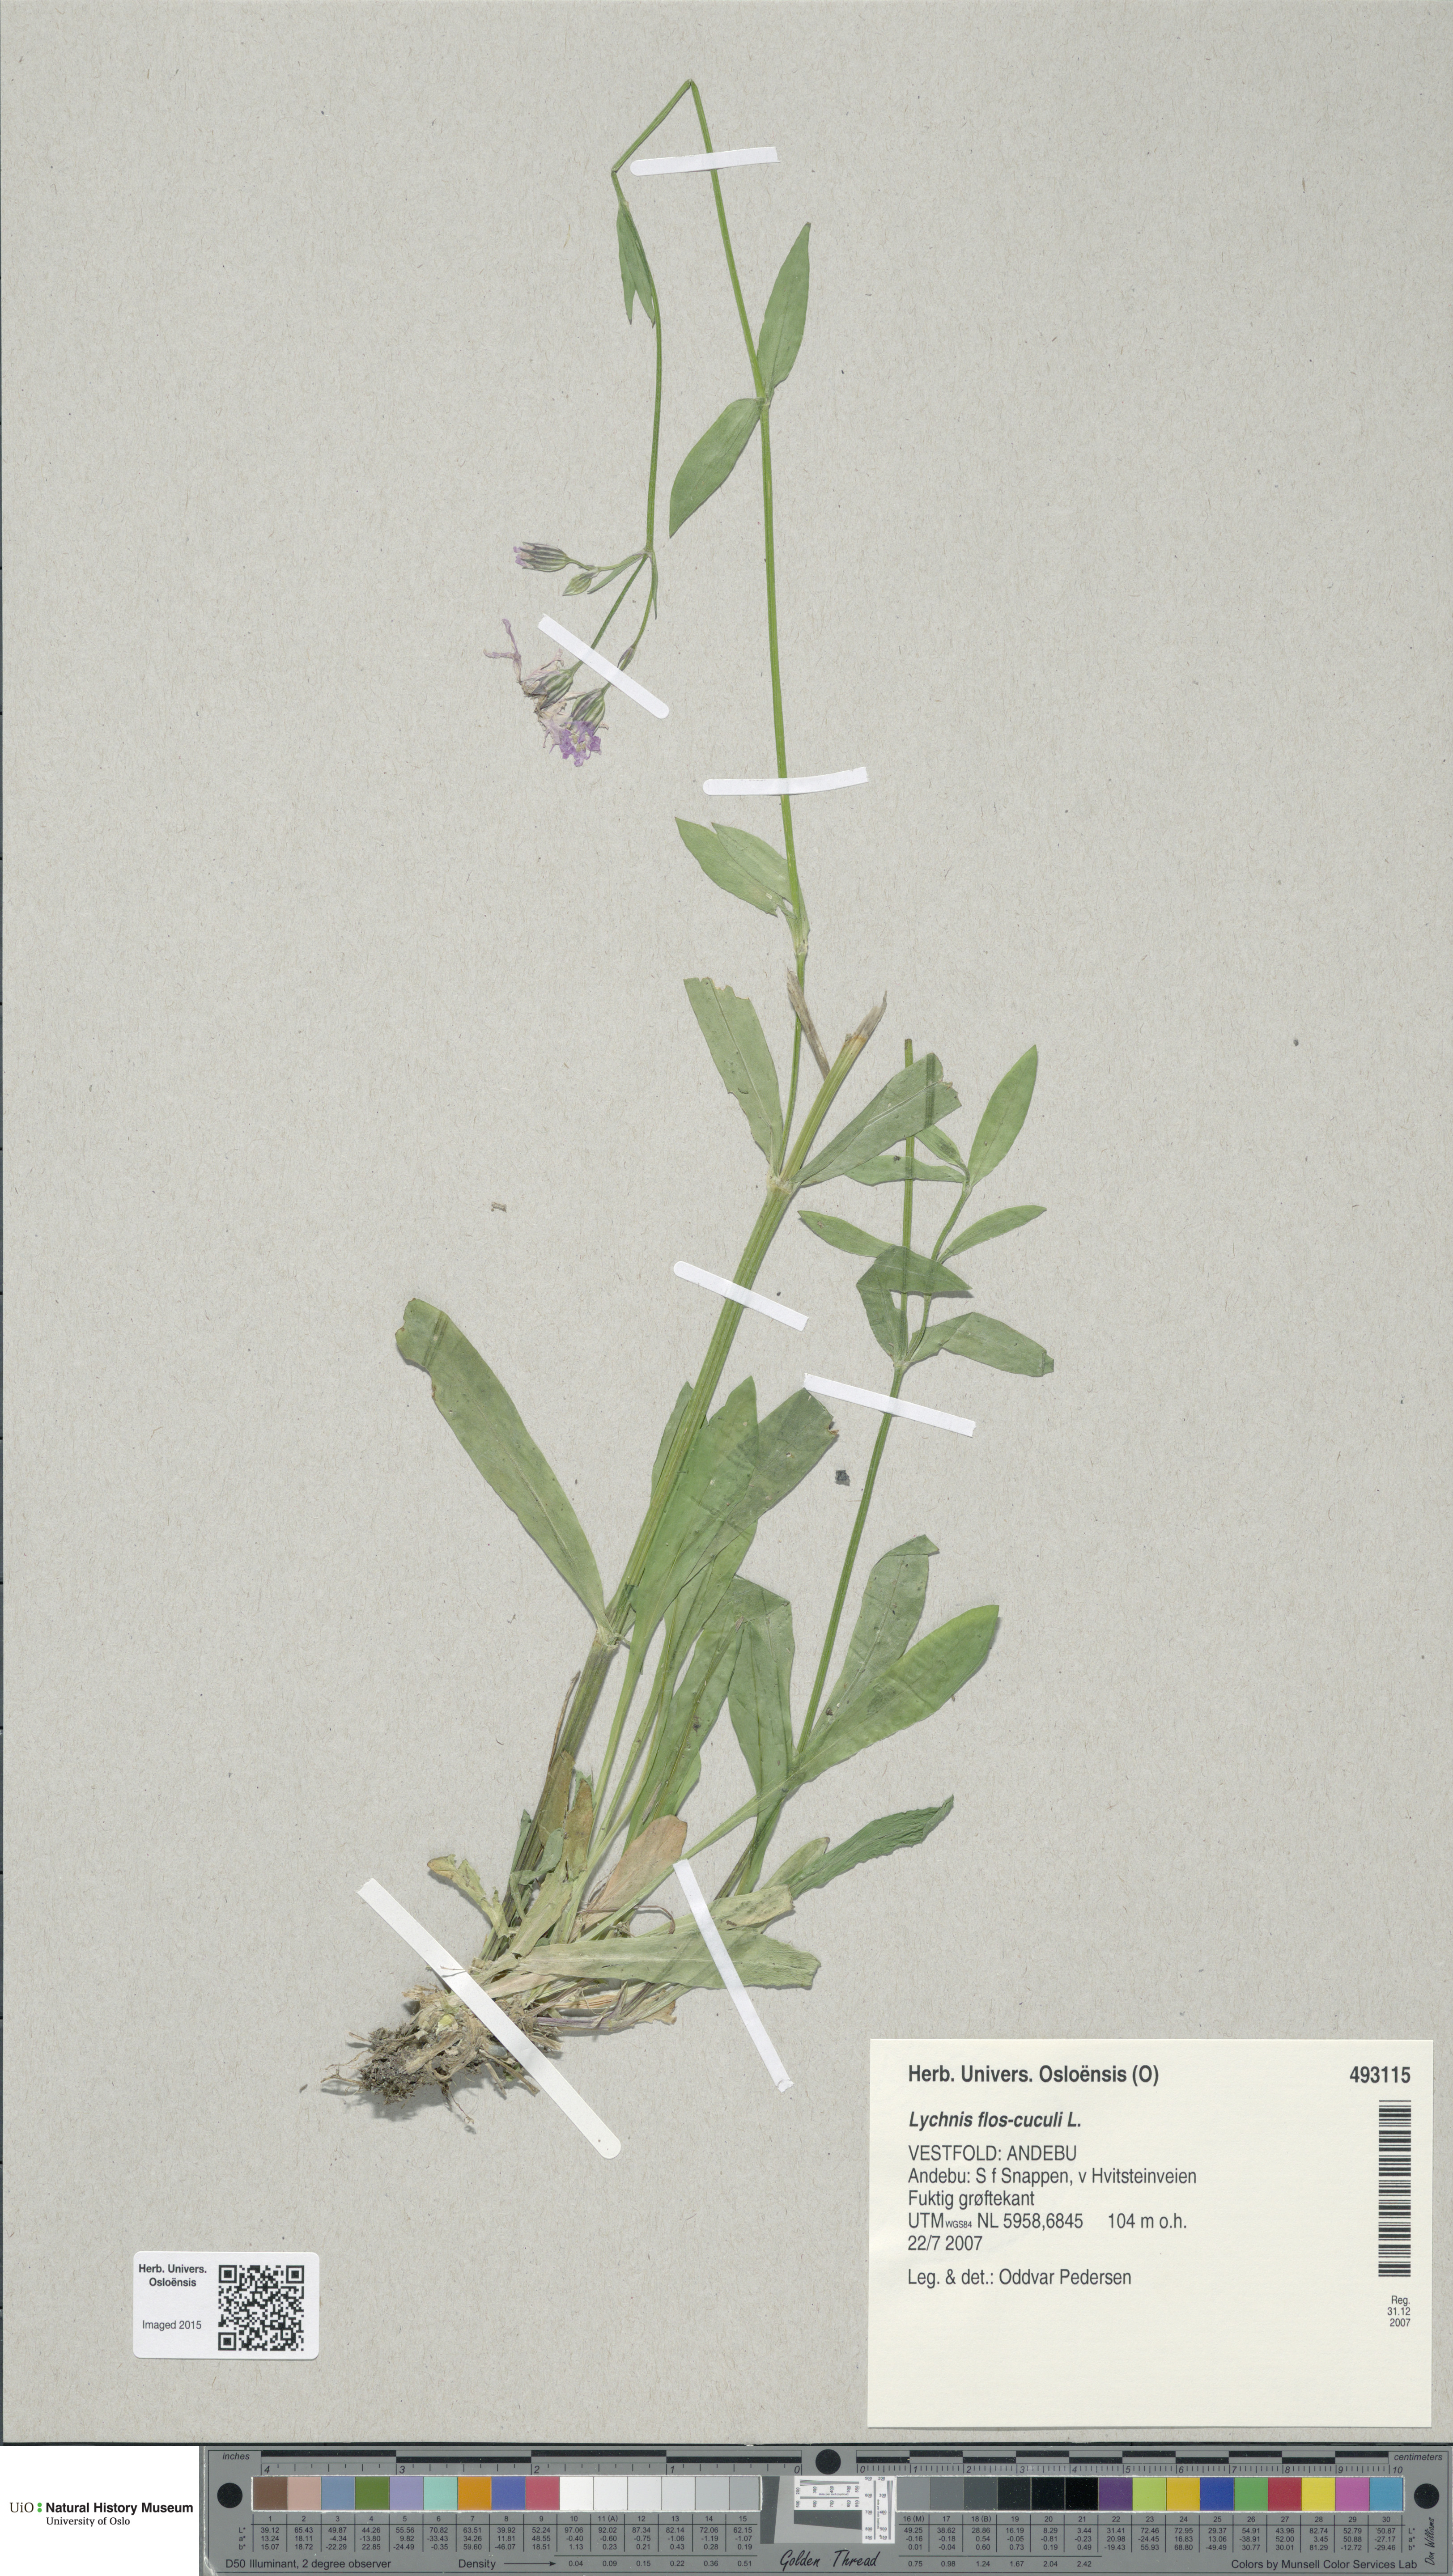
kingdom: Plantae
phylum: Tracheophyta
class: Magnoliopsida
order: Caryophyllales
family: Caryophyllaceae
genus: Silene
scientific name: Silene flos-cuculi
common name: Ragged-robin
